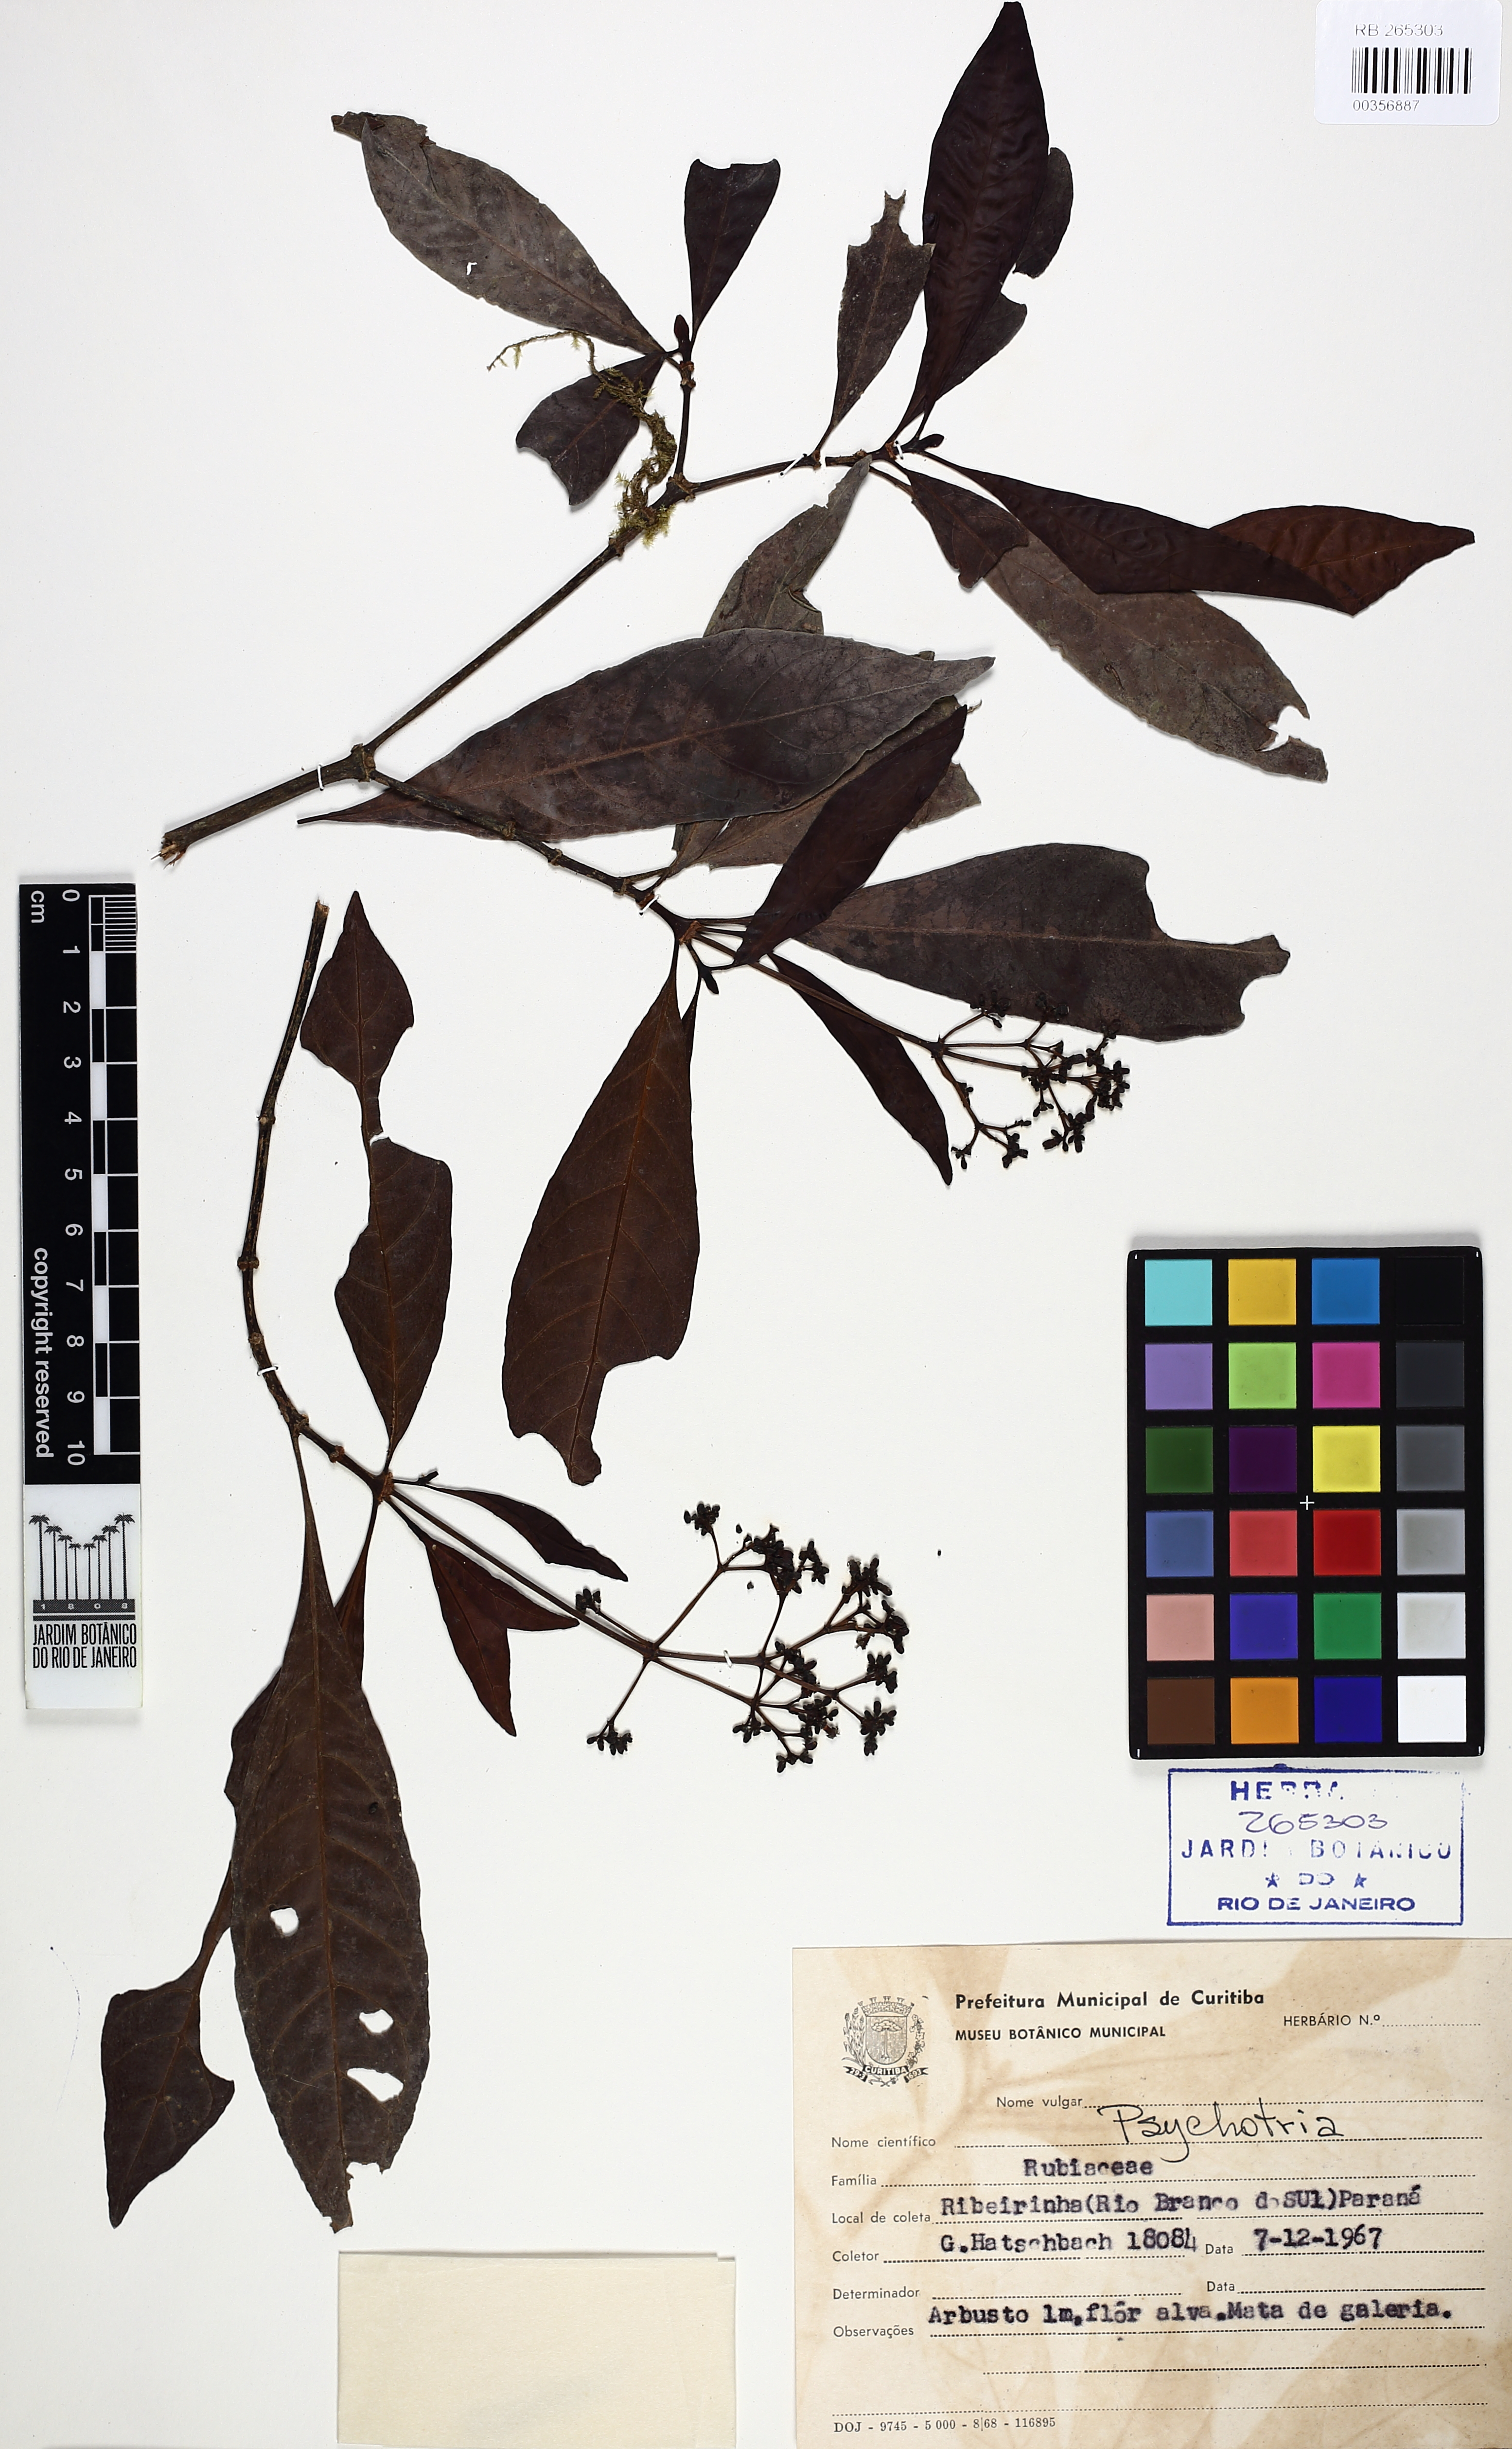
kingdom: Plantae
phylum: Tracheophyta
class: Magnoliopsida
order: Gentianales
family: Rubiaceae
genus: Psychotria
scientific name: Psychotria fractistipula
